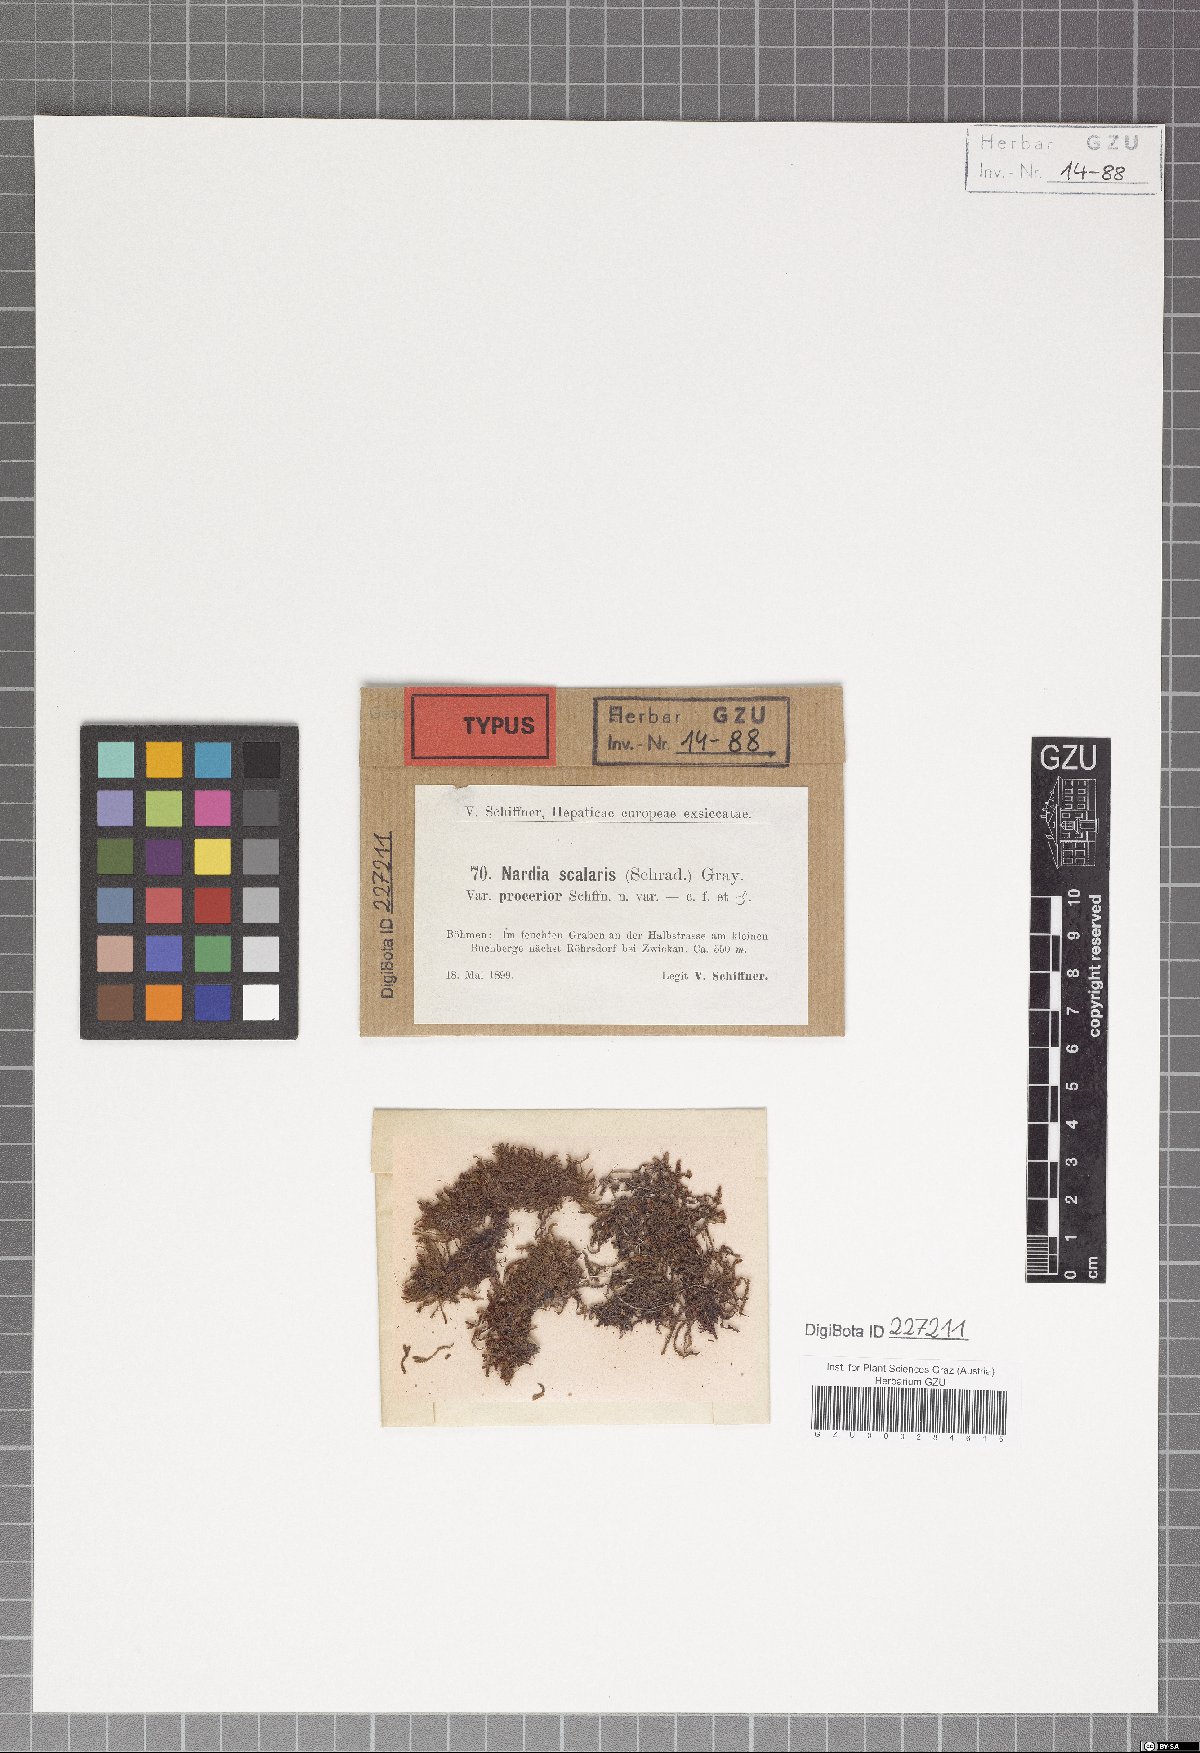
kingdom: Plantae
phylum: Marchantiophyta
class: Jungermanniopsida
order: Jungermanniales
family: Gymnomitriaceae
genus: Nardia
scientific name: Nardia scalaris
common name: Ladder flapwort
